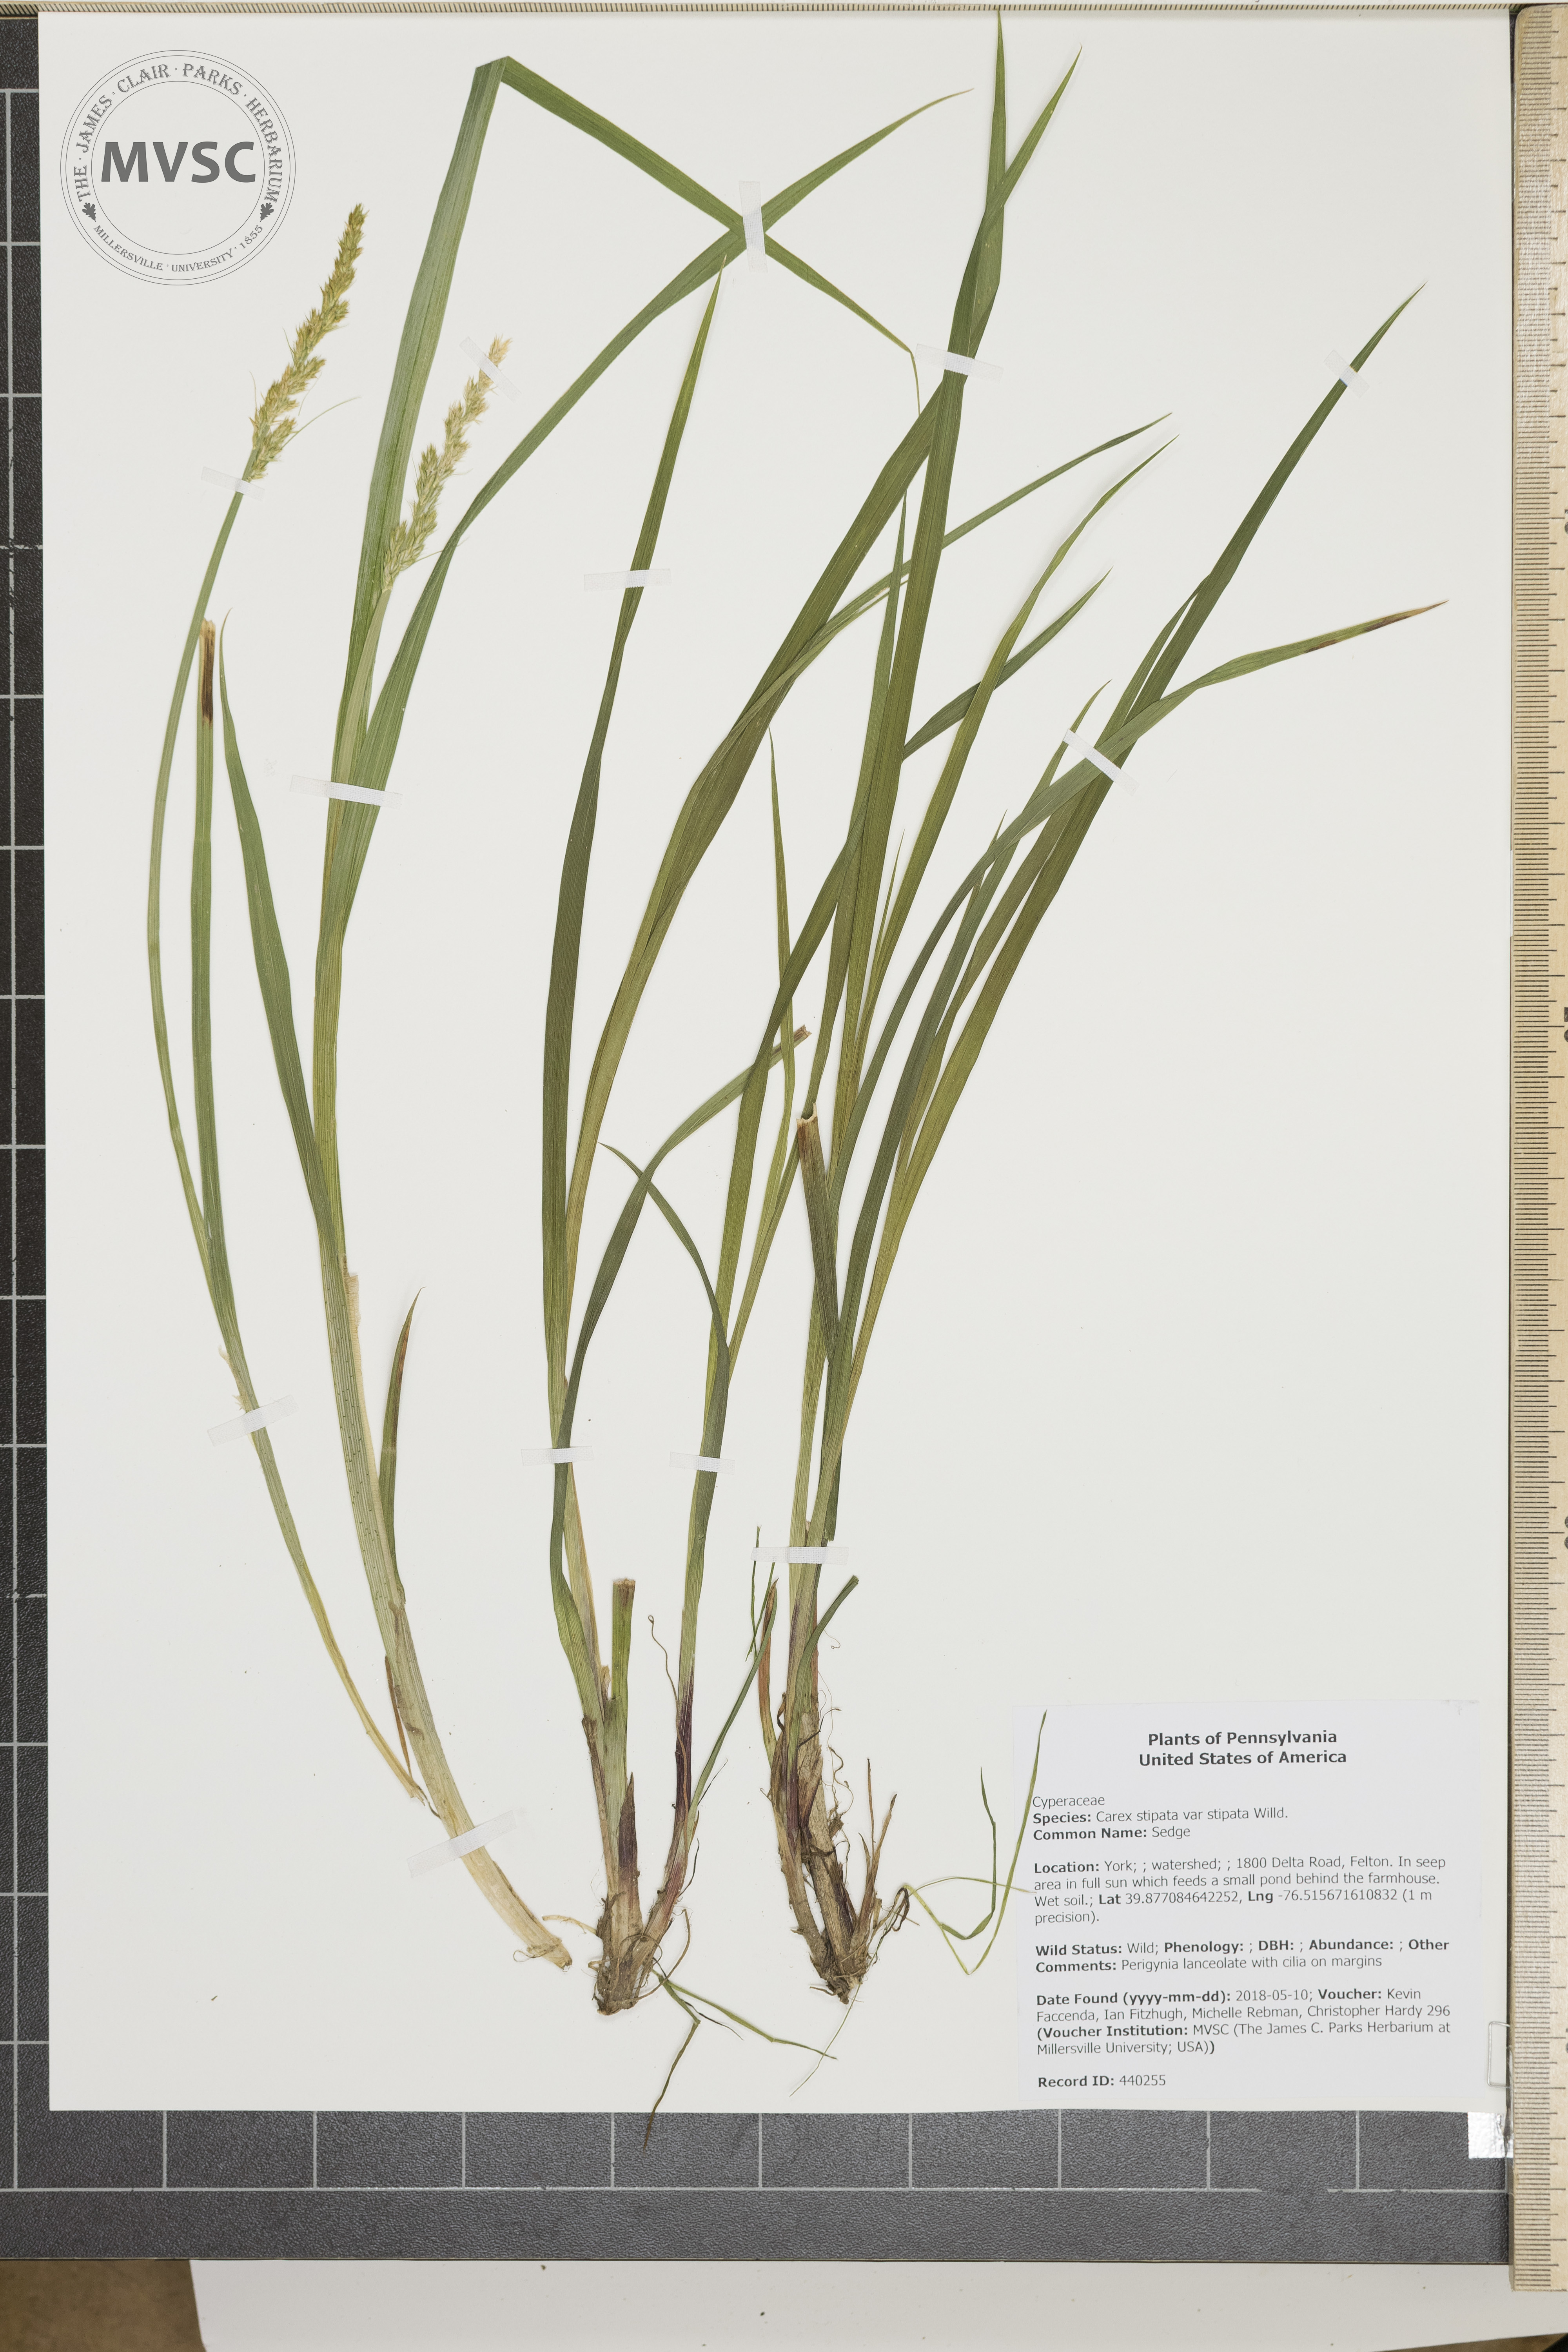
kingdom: Plantae
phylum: Tracheophyta
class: Liliopsida
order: Poales
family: Cyperaceae
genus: Carex
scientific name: Carex stipata
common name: Sedge
